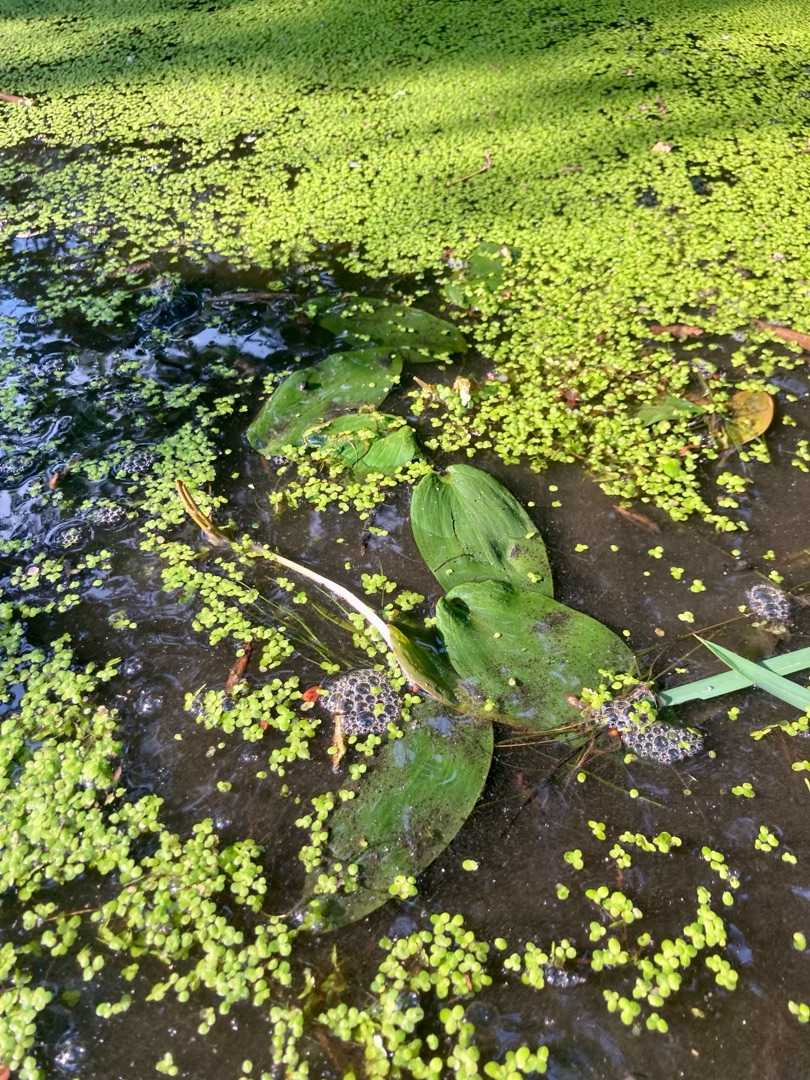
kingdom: Plantae
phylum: Tracheophyta
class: Liliopsida
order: Alismatales
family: Hydrocharitaceae
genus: Hydrocharis
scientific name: Hydrocharis morsus-ranae
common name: Frøbid
